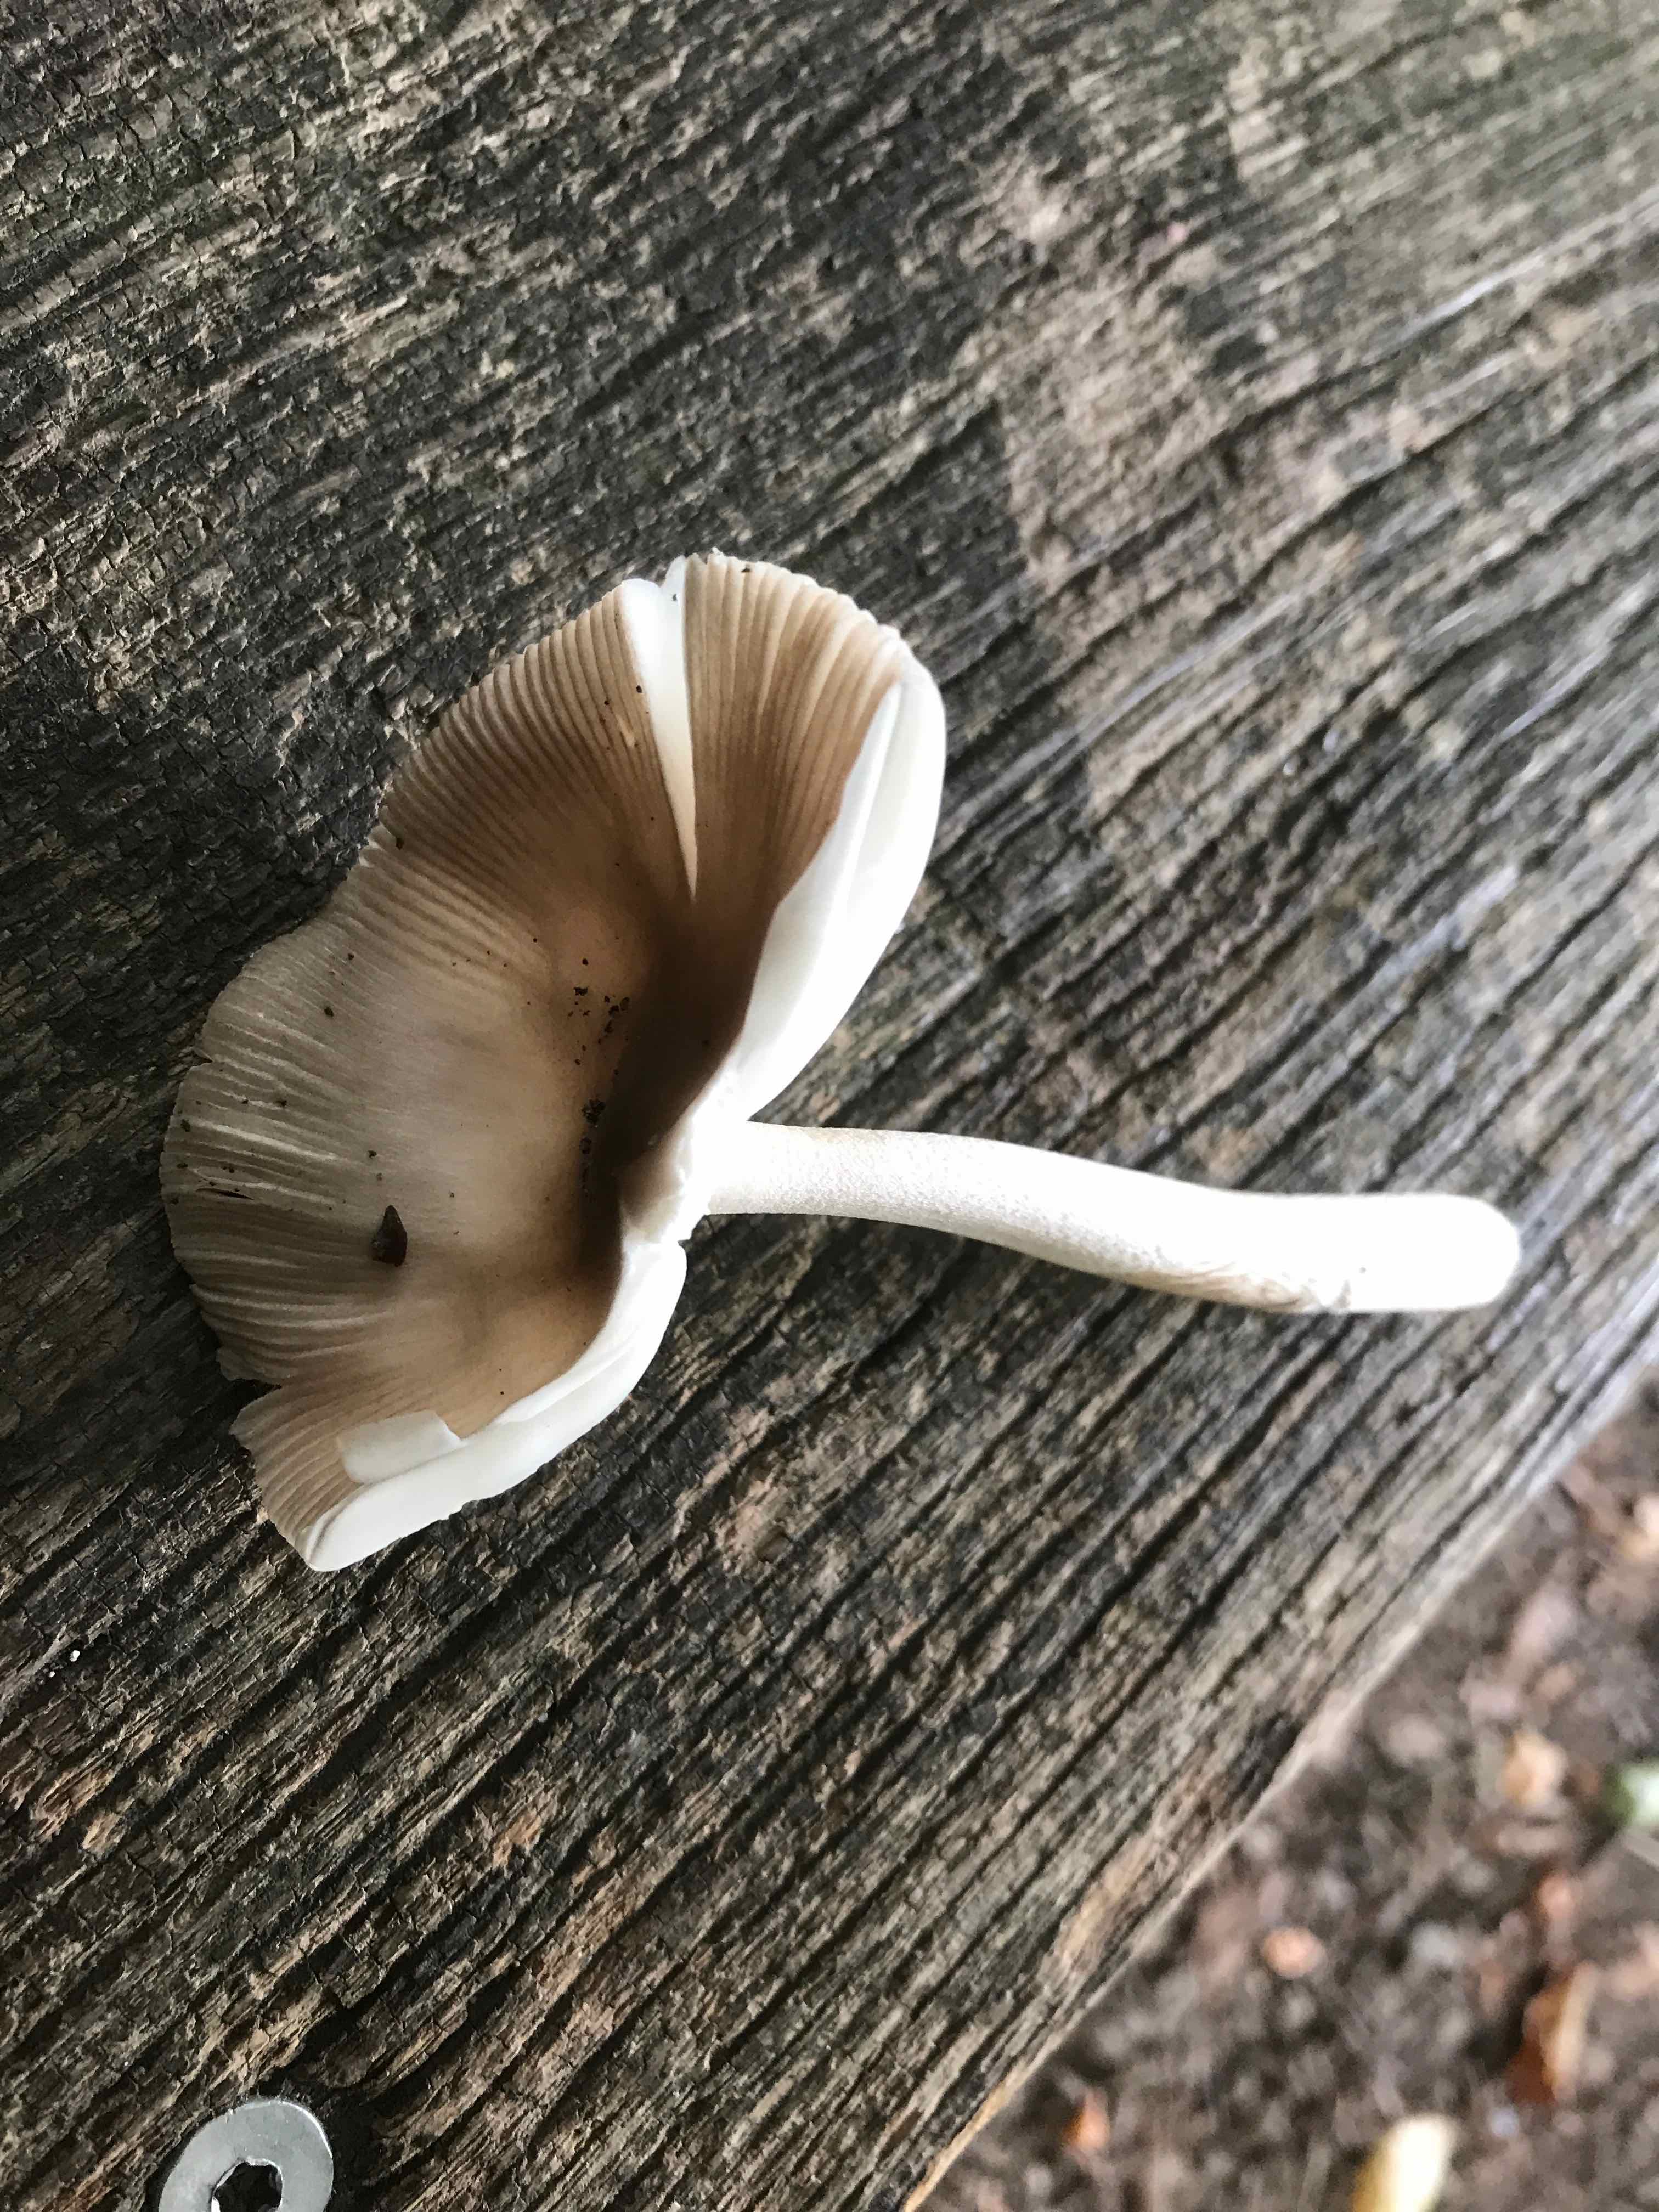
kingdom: Fungi
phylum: Basidiomycota
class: Agaricomycetes
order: Agaricales
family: Amanitaceae
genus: Amanita
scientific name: Amanita
